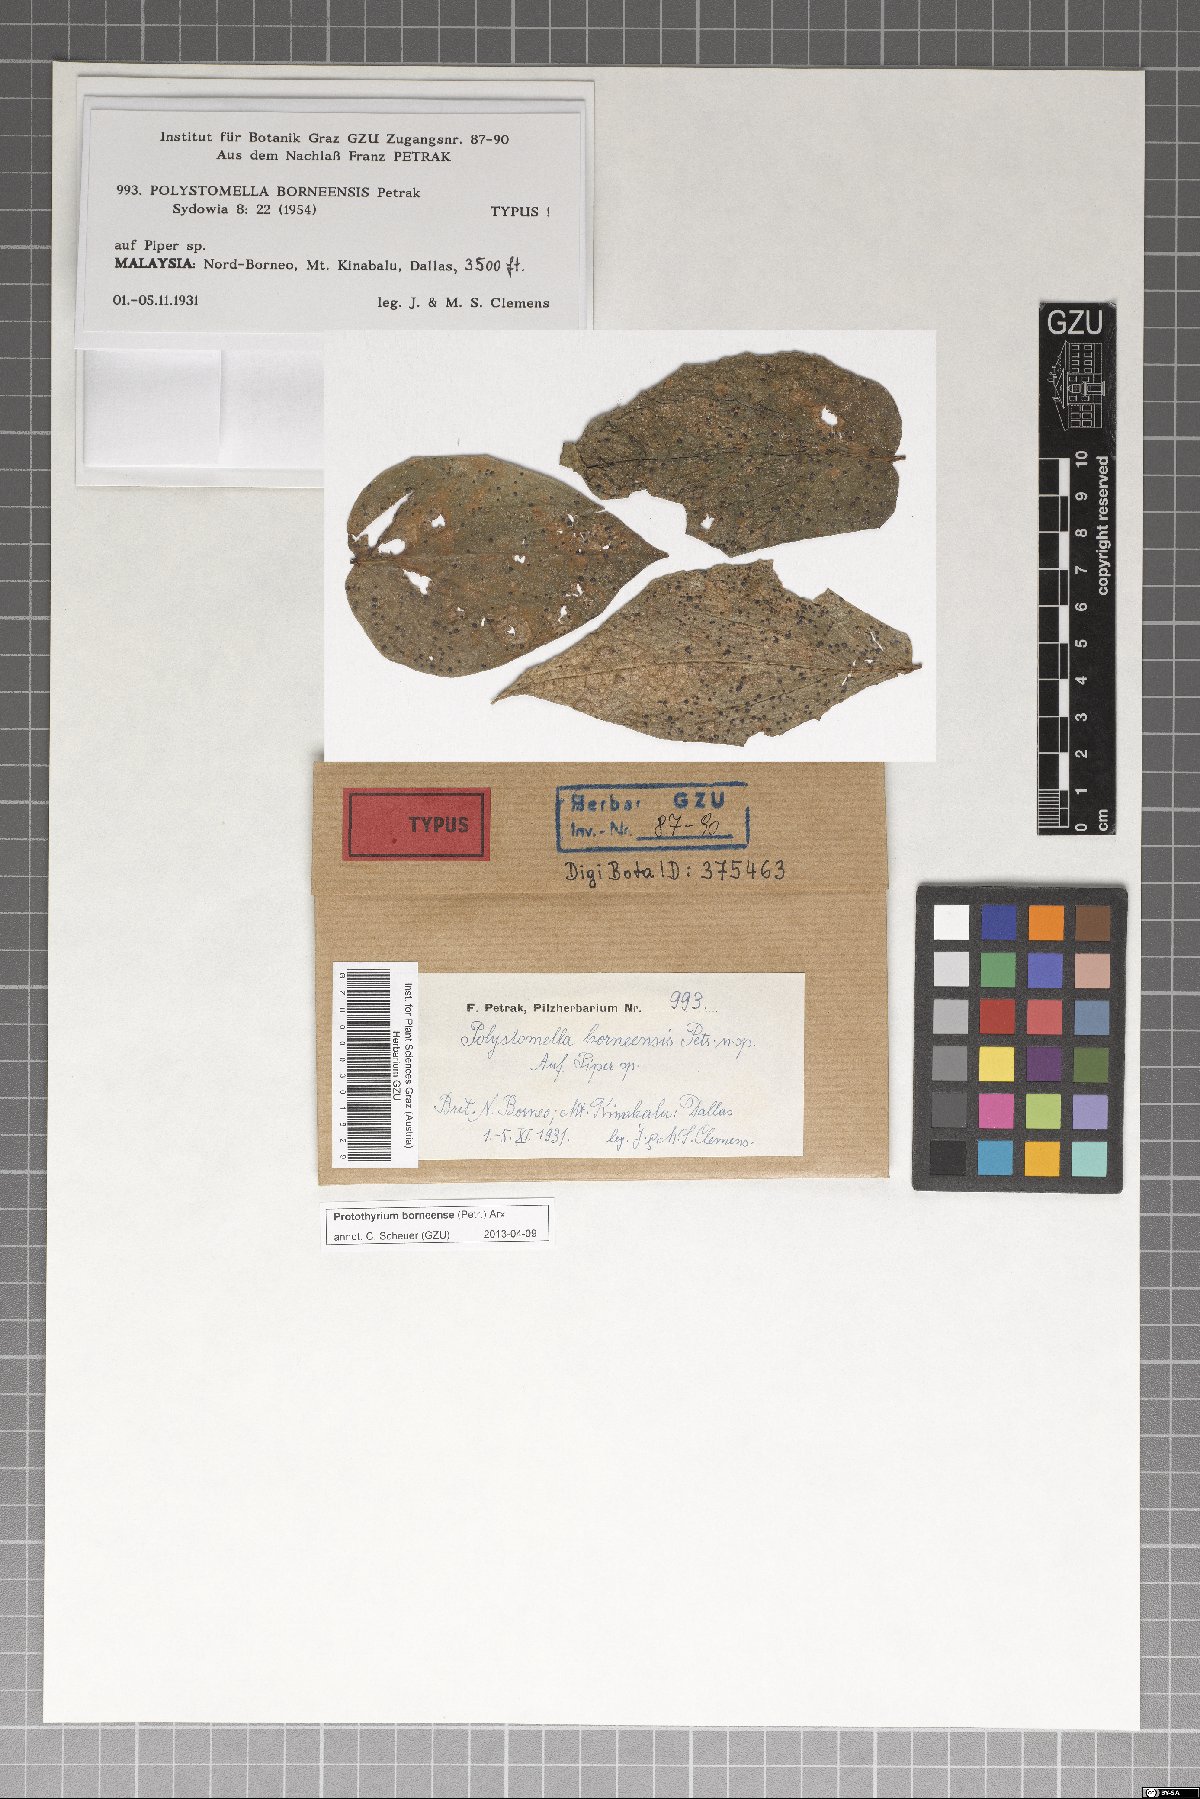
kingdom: Fungi
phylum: Ascomycota
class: Dothideomycetes
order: Asterinales
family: Parmulariaceae
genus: Protothyrium
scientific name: Protothyrium borneense
